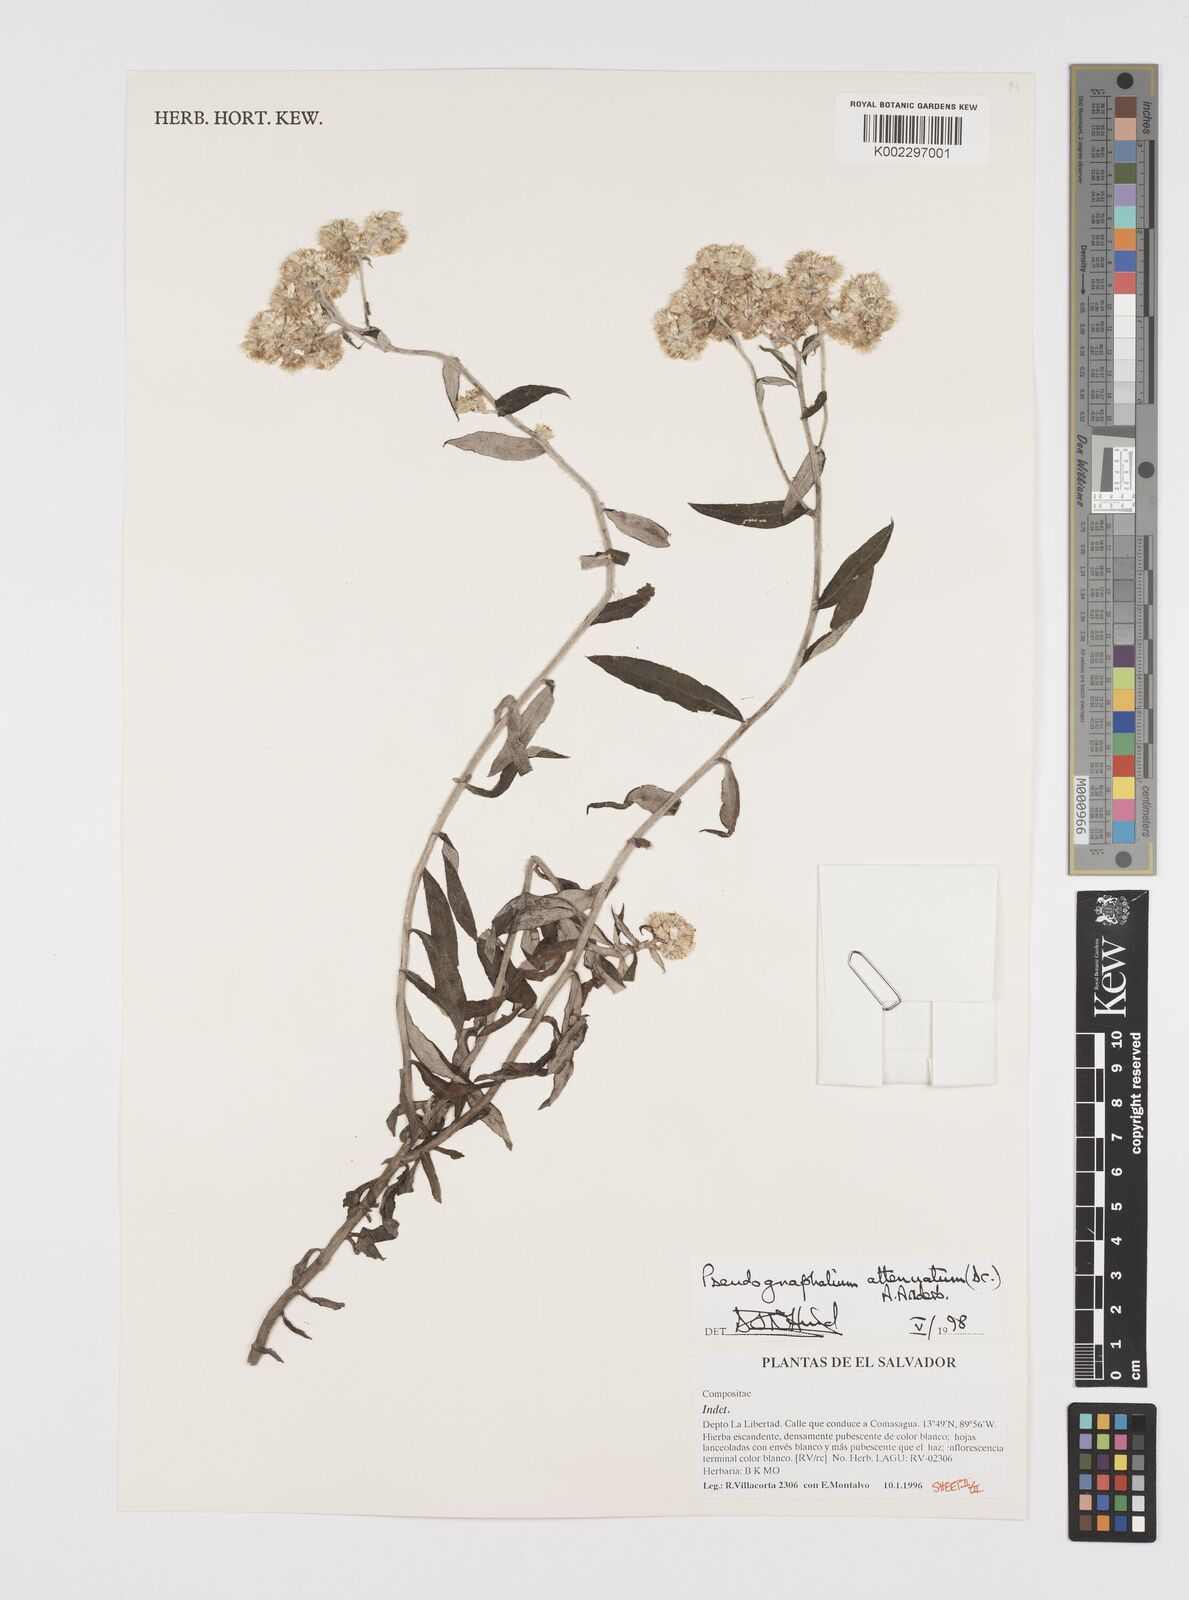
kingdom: Plantae
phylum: Tracheophyta
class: Magnoliopsida
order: Asterales
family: Asteraceae
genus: Pseudognaphalium
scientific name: Pseudognaphalium attenuatum
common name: Tapered cudweed
